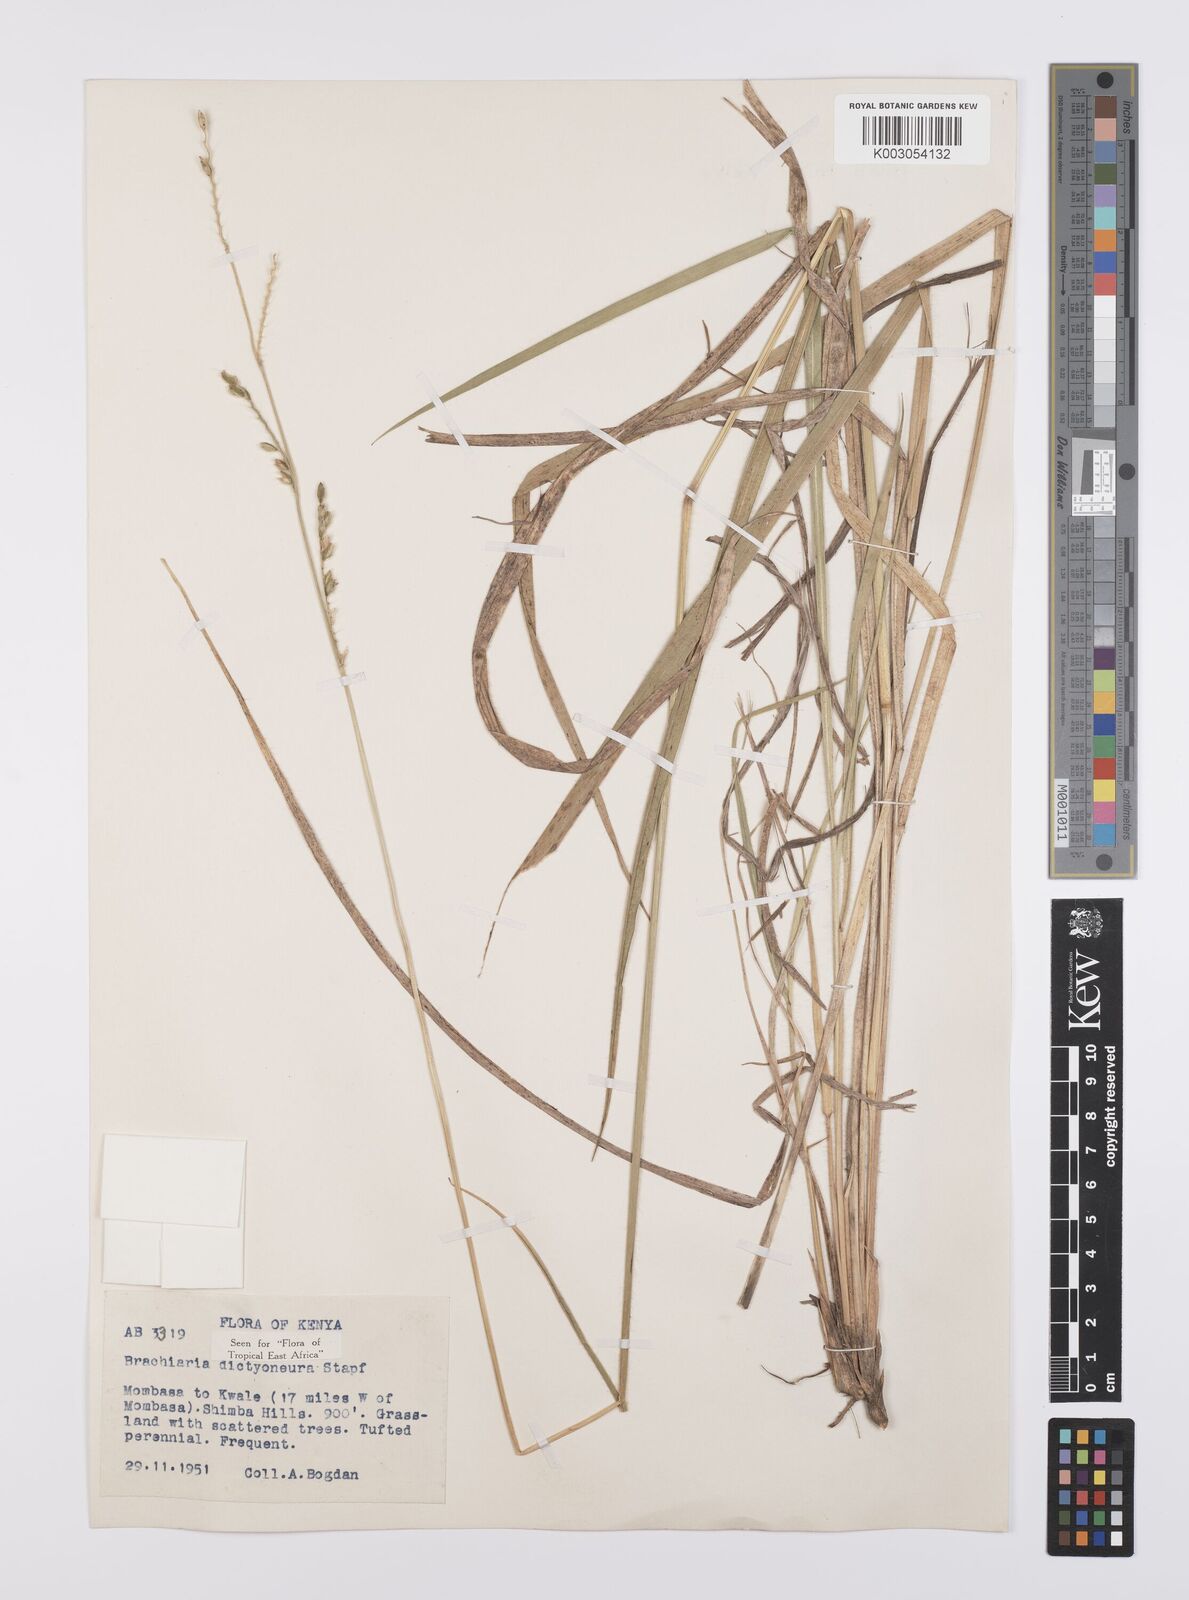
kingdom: Plantae
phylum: Tracheophyta
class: Liliopsida
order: Poales
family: Poaceae
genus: Urochloa
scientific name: Urochloa dictyoneura
